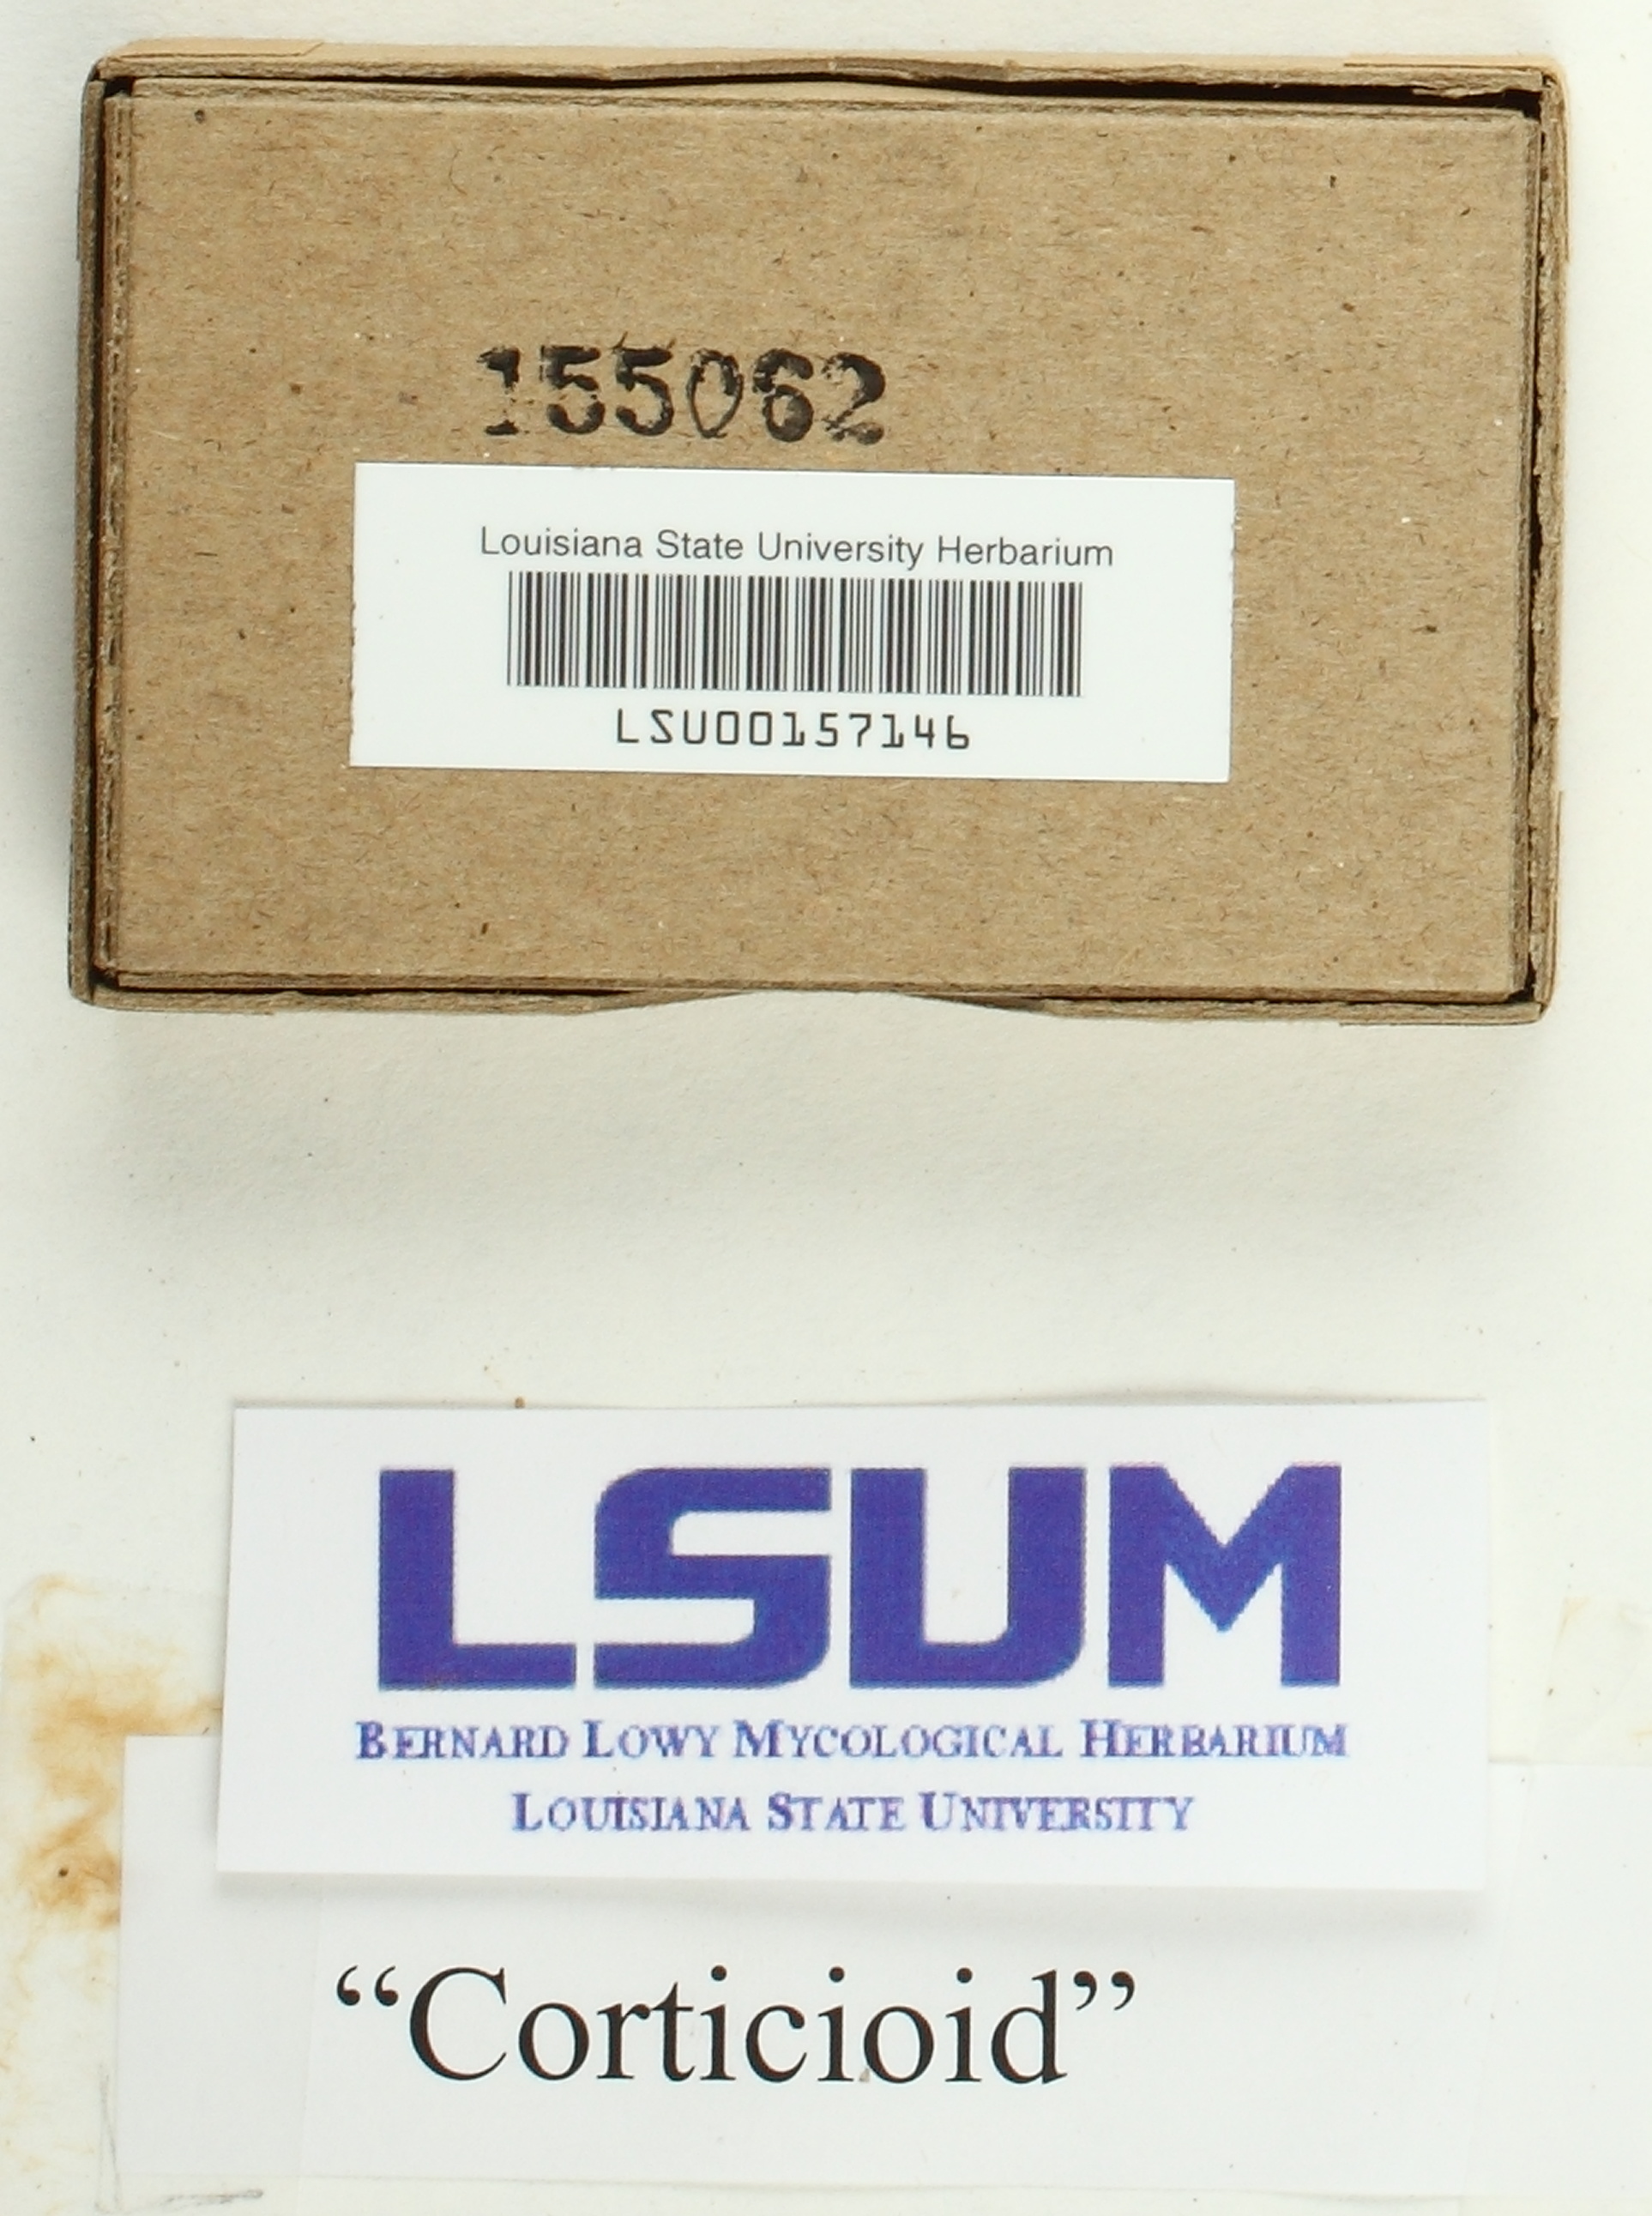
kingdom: Fungi
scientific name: Fungi
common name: Fungi
